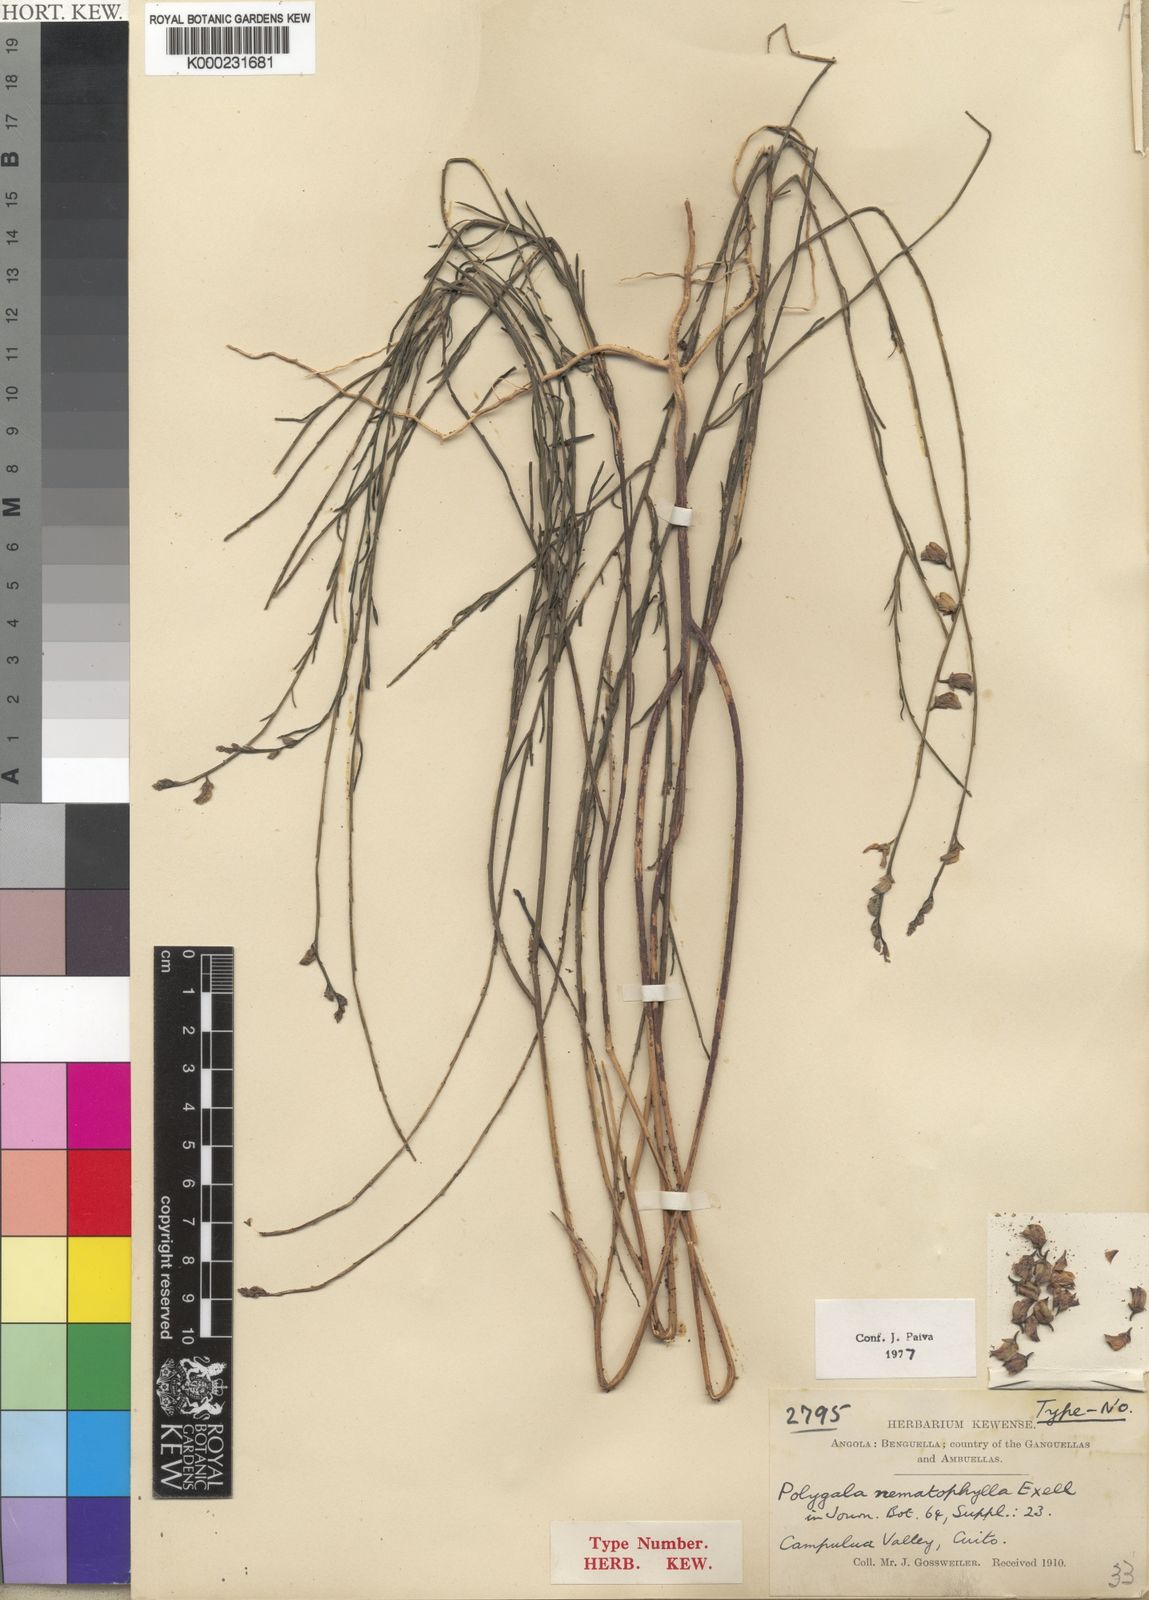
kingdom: Plantae
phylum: Tracheophyta
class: Magnoliopsida
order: Fabales
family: Polygalaceae
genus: Polygala
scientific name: Polygala nematophylla
